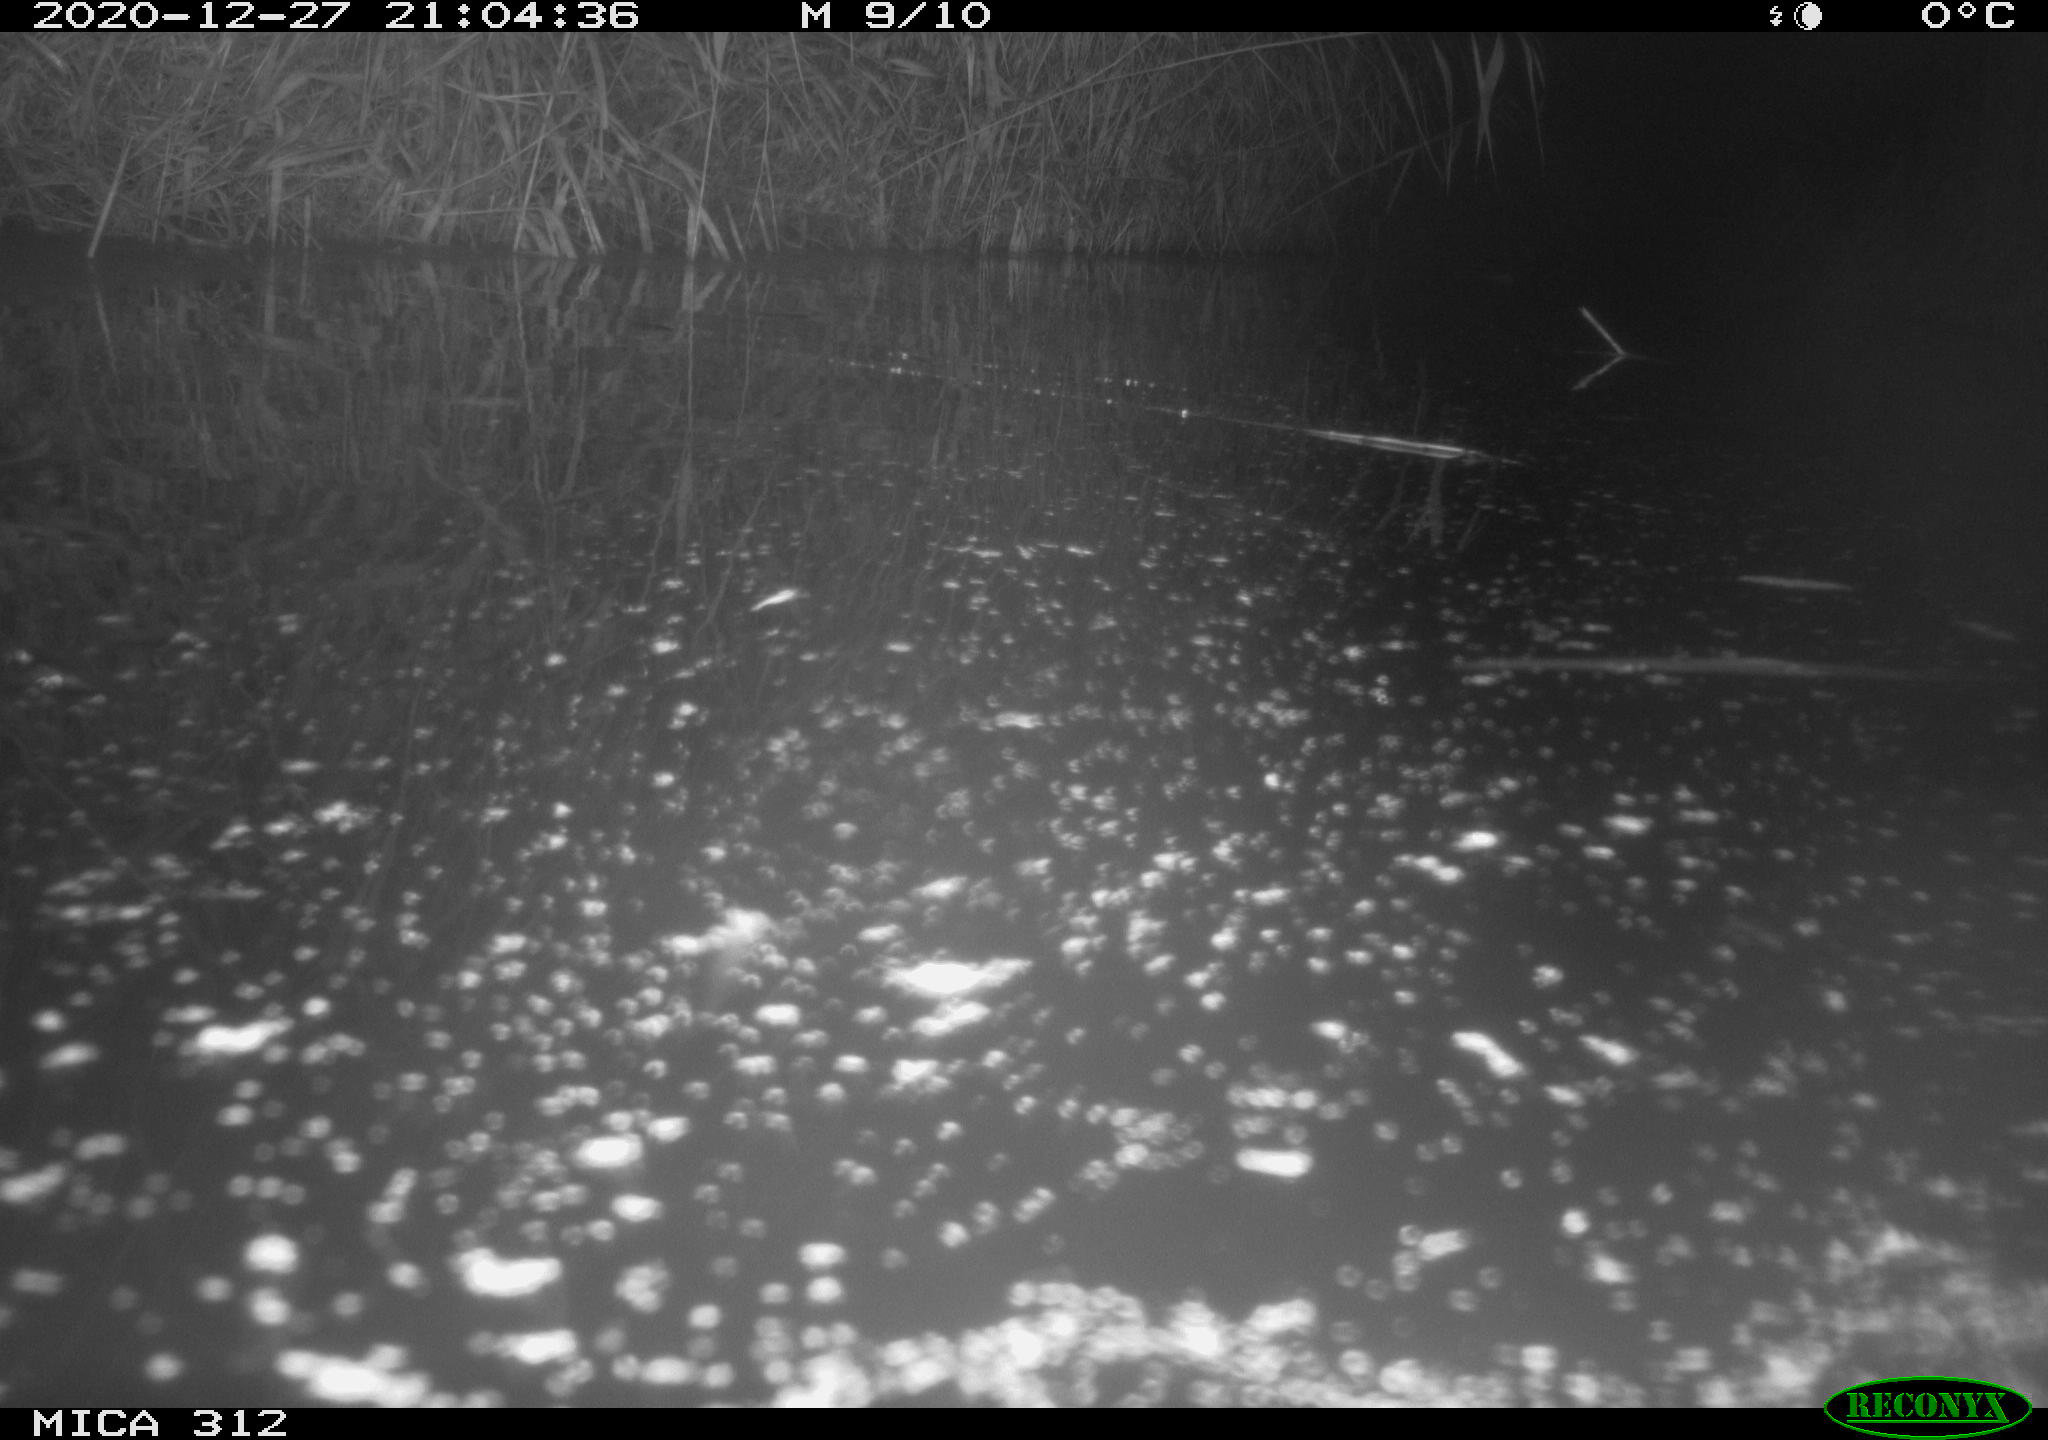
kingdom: Animalia
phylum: Chordata
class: Aves
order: Gruiformes
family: Rallidae
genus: Gallinula
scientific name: Gallinula chloropus
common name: Common moorhen
